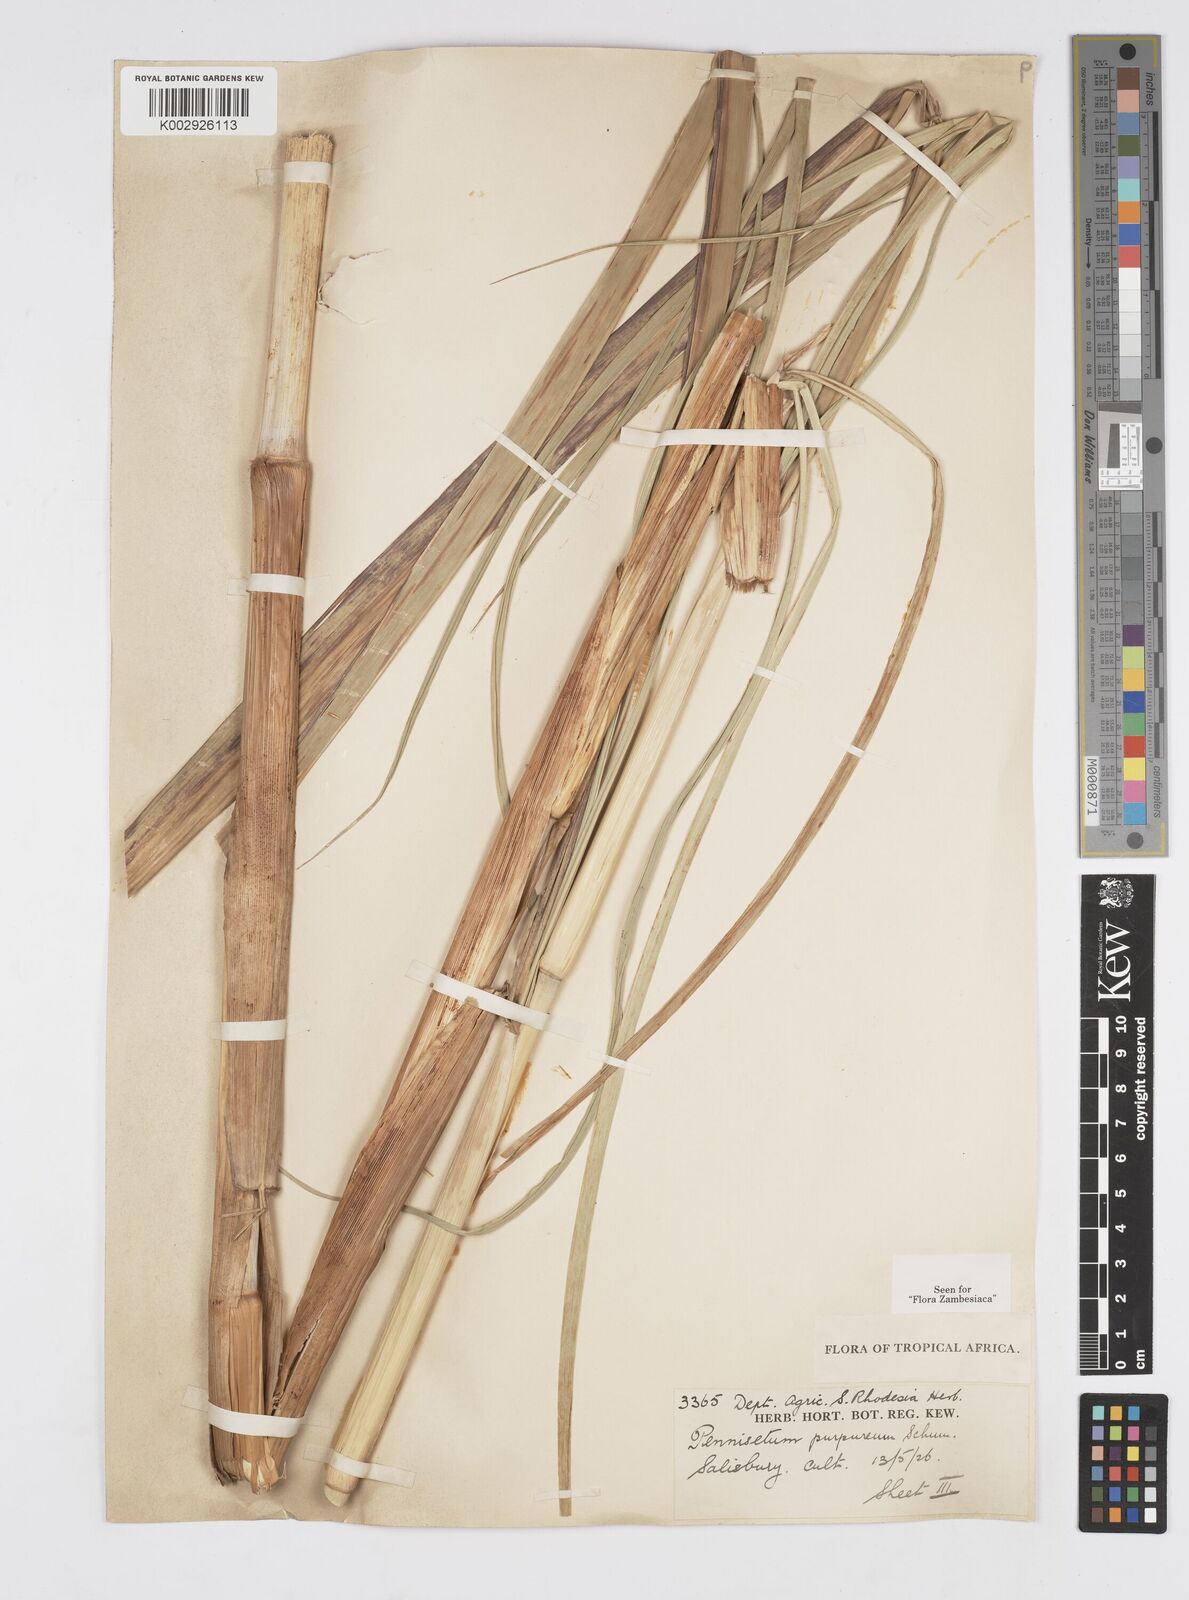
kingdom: Plantae
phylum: Tracheophyta
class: Liliopsida
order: Poales
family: Poaceae
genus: Cenchrus
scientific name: Cenchrus purpureus
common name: Elephant grass
